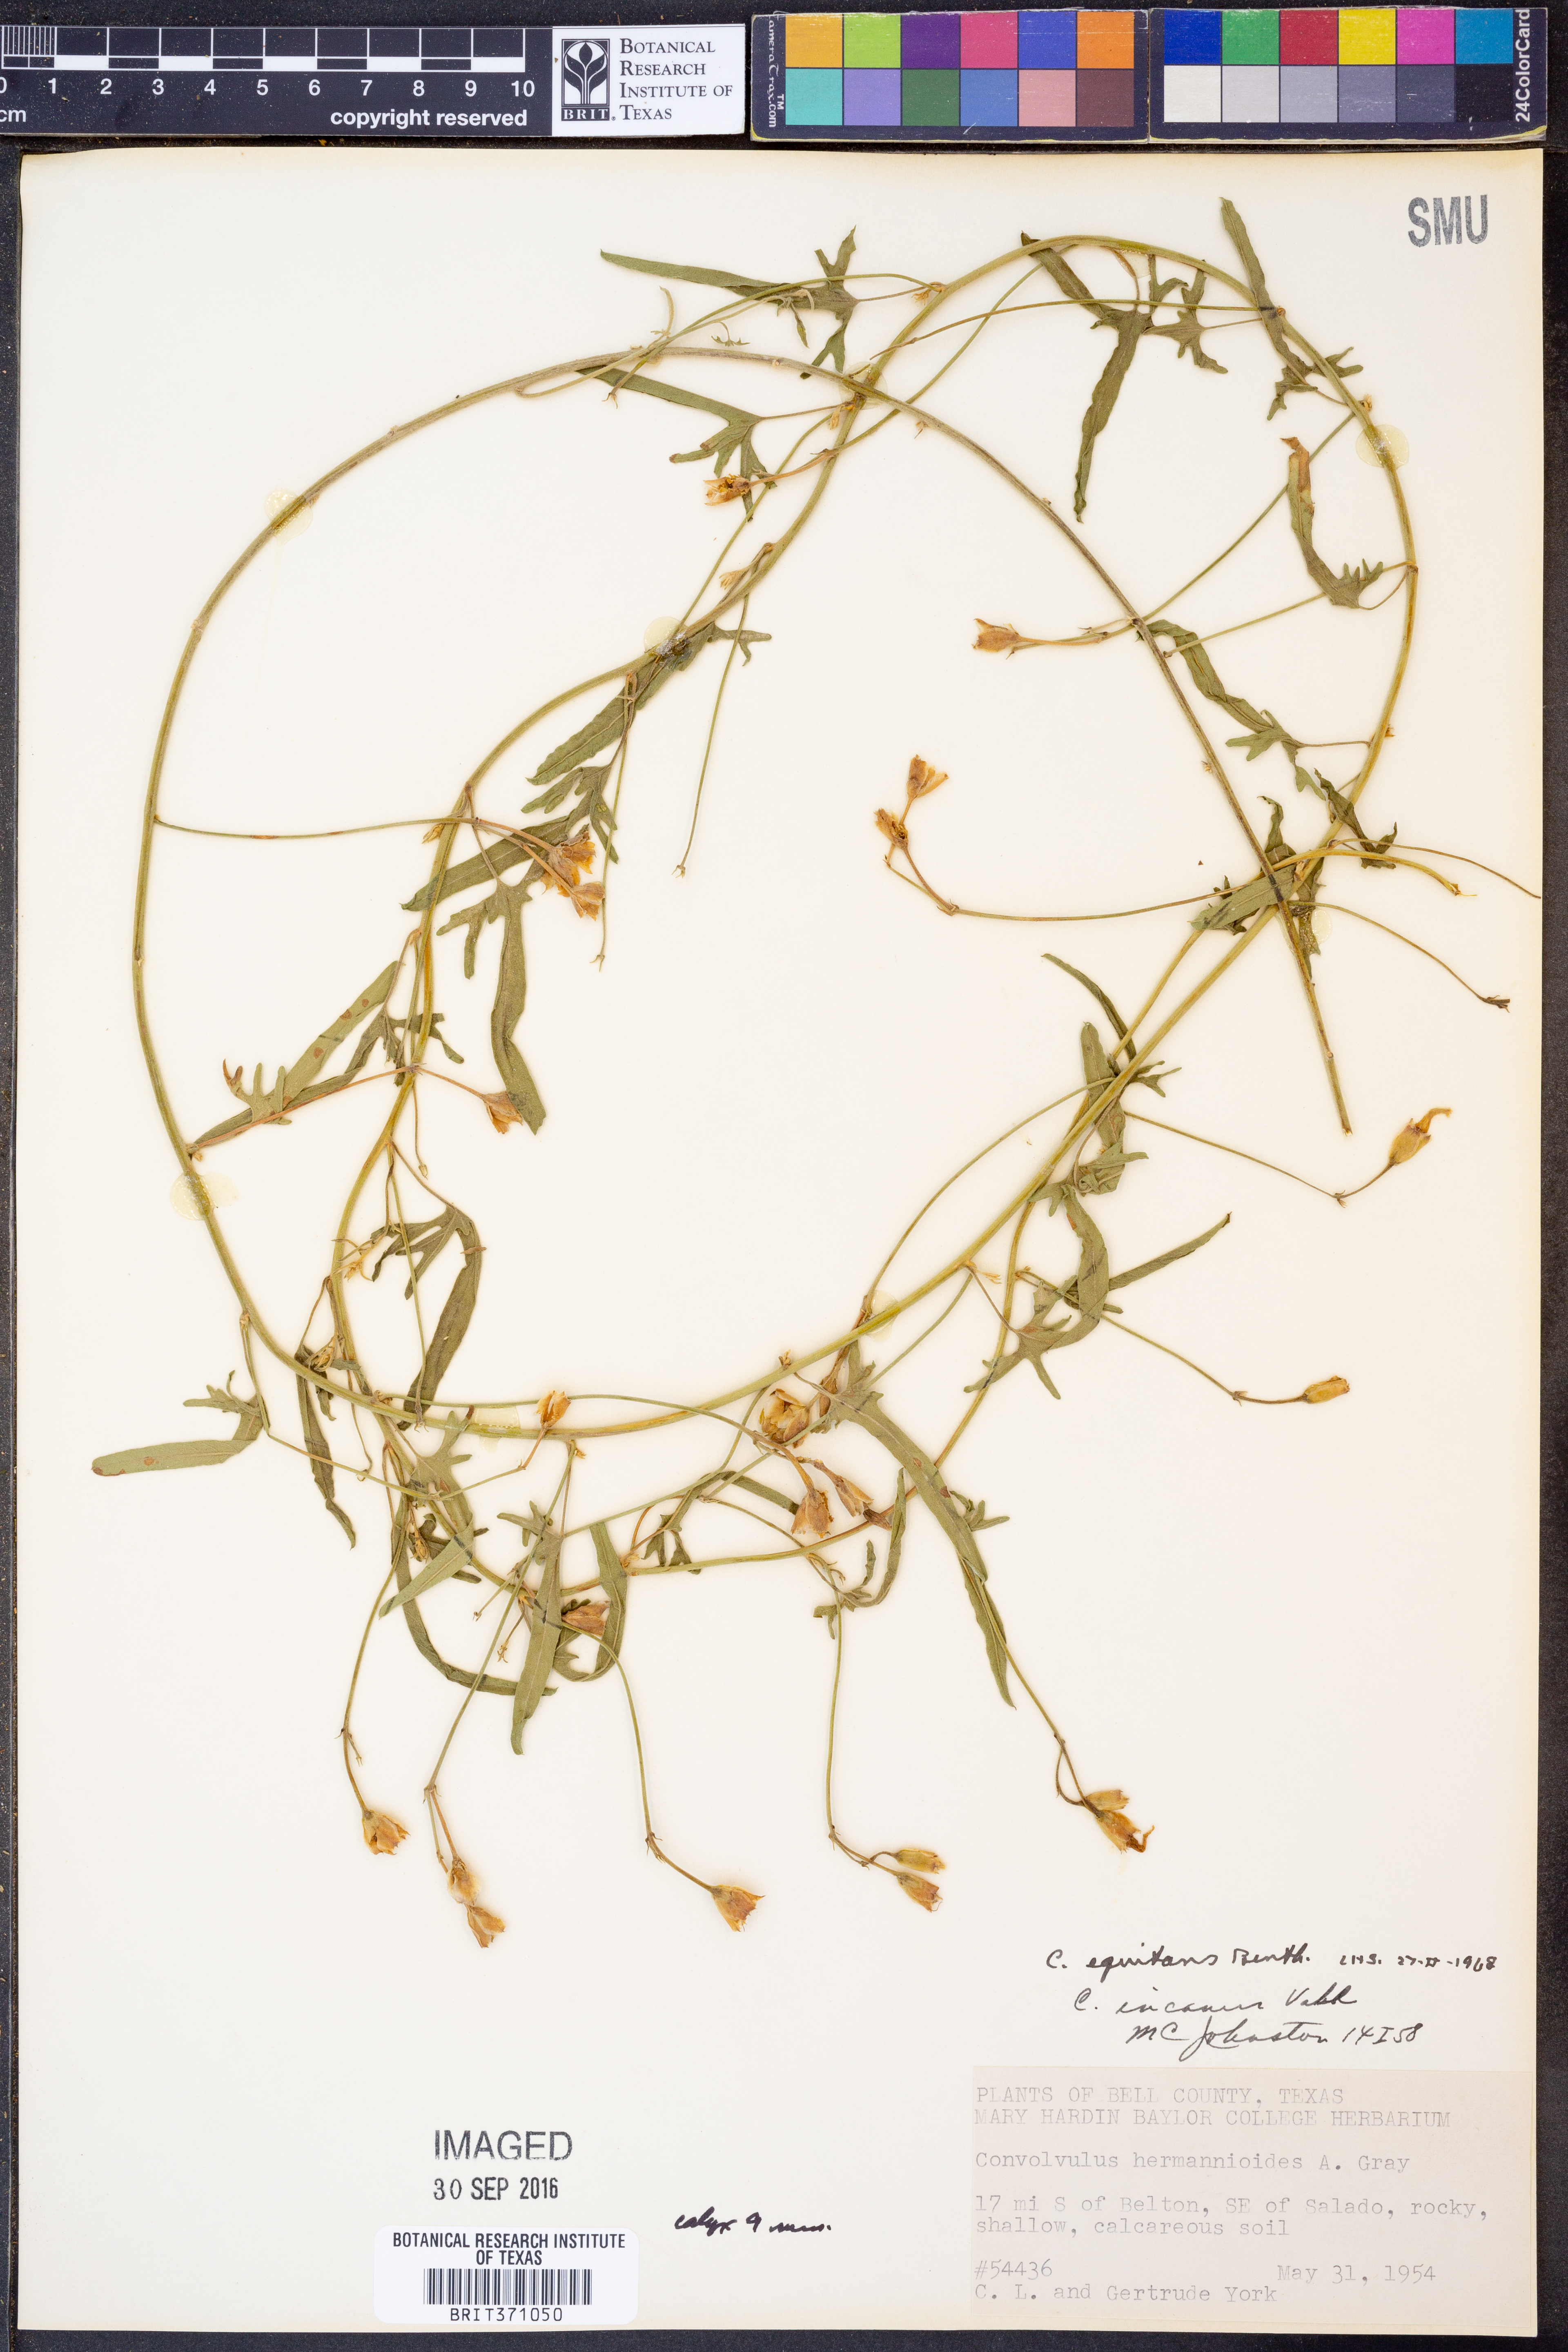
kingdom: Plantae
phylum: Tracheophyta
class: Magnoliopsida
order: Solanales
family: Convolvulaceae
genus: Convolvulus
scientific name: Convolvulus equitans
